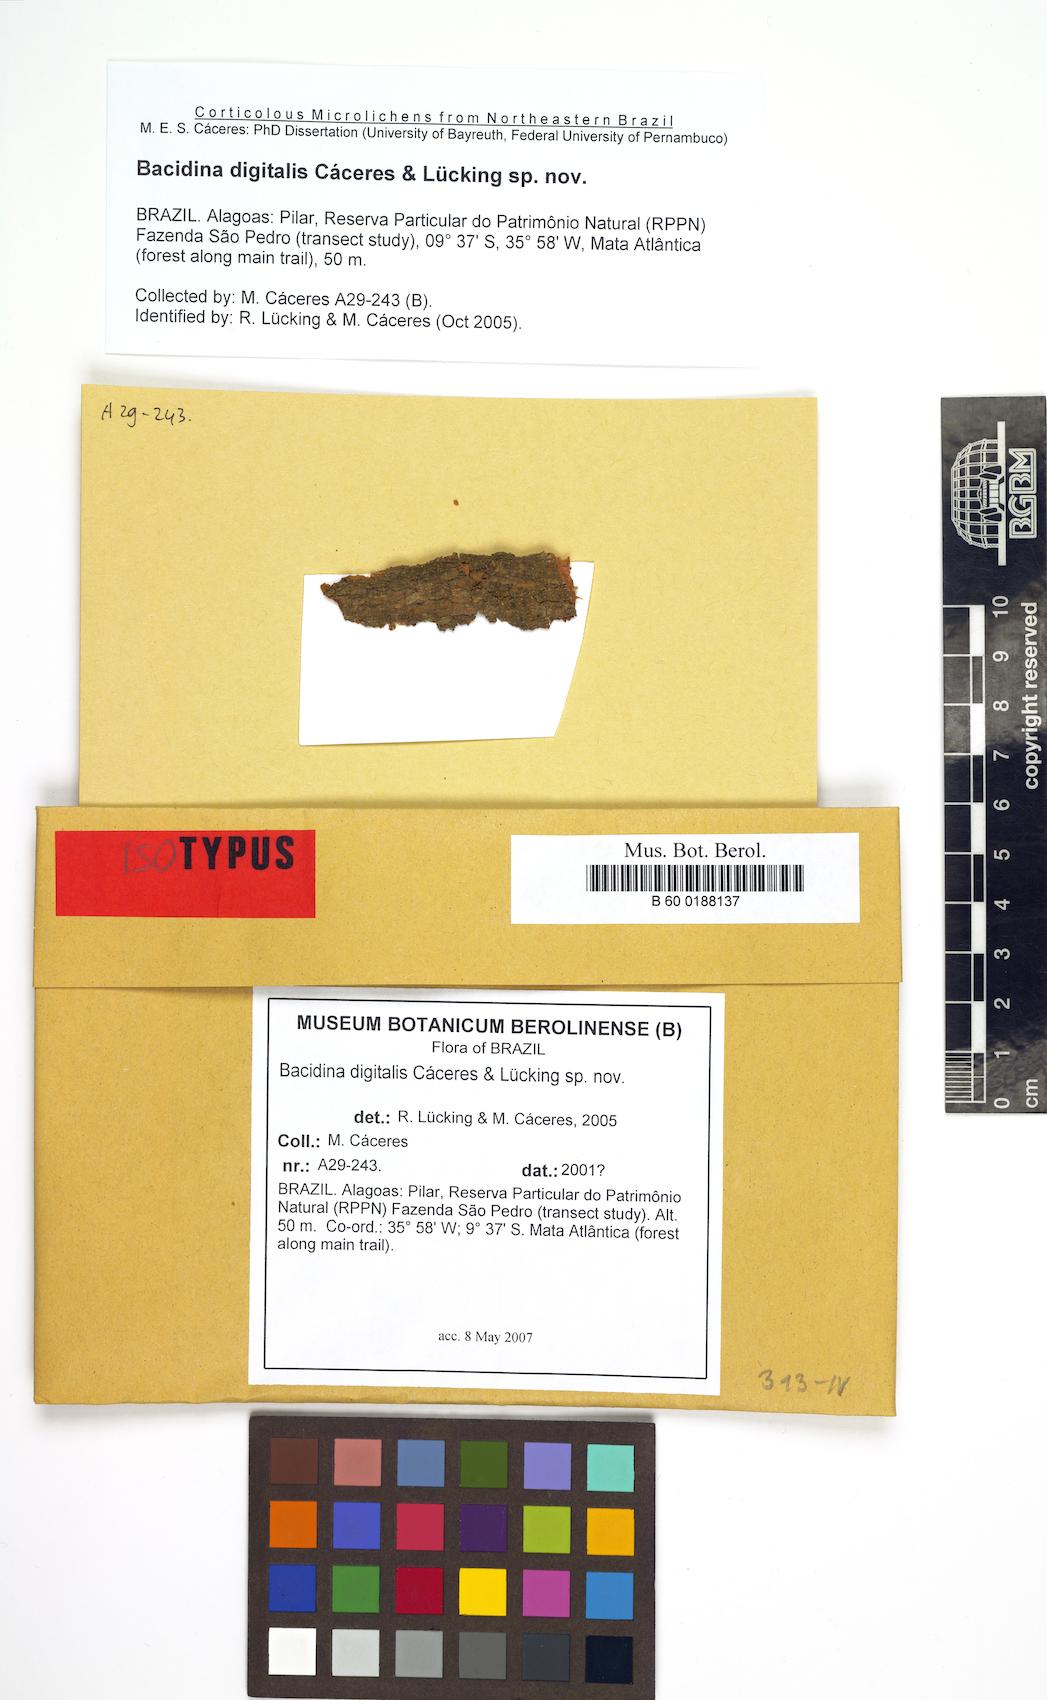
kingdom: Fungi
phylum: Ascomycota
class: Lecanoromycetes
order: Lecanorales
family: Ramalinaceae
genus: Bacidina
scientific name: Bacidina digitalis
